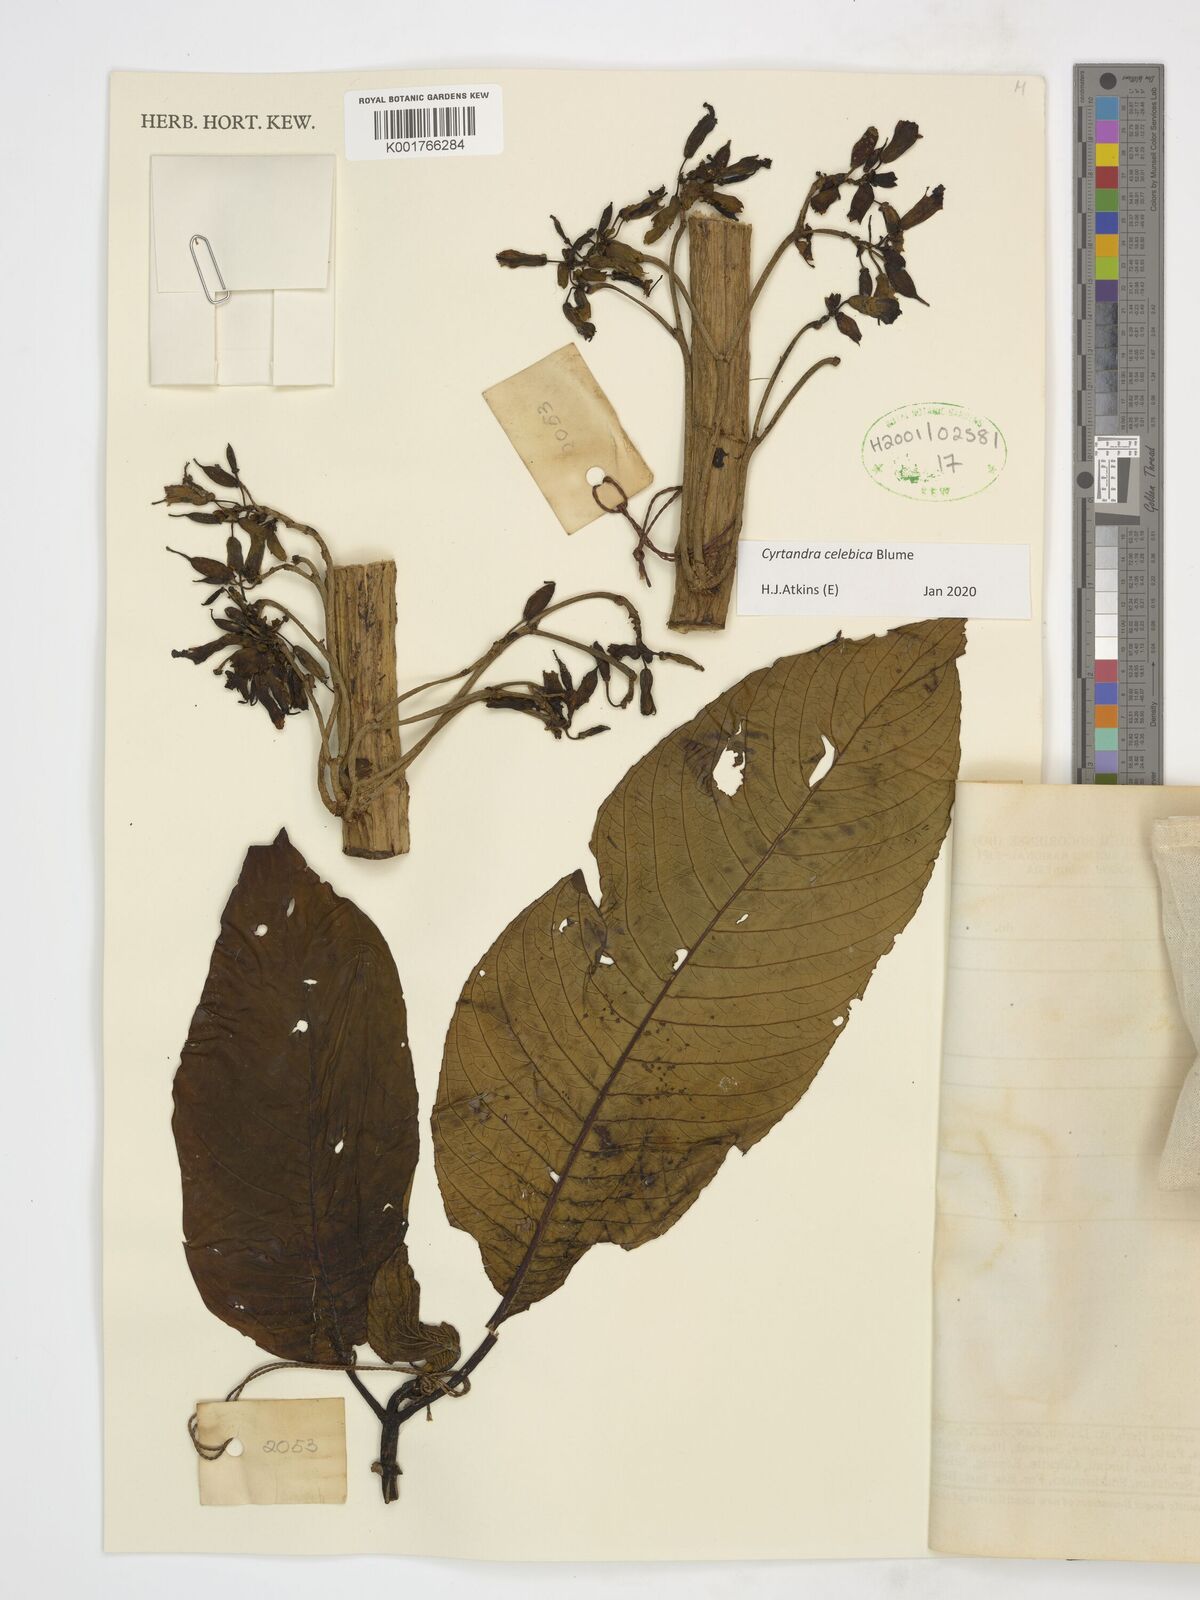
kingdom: Plantae
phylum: Tracheophyta
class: Magnoliopsida
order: Lamiales
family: Gesneriaceae
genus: Cyrtandra
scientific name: Cyrtandra coccinea
